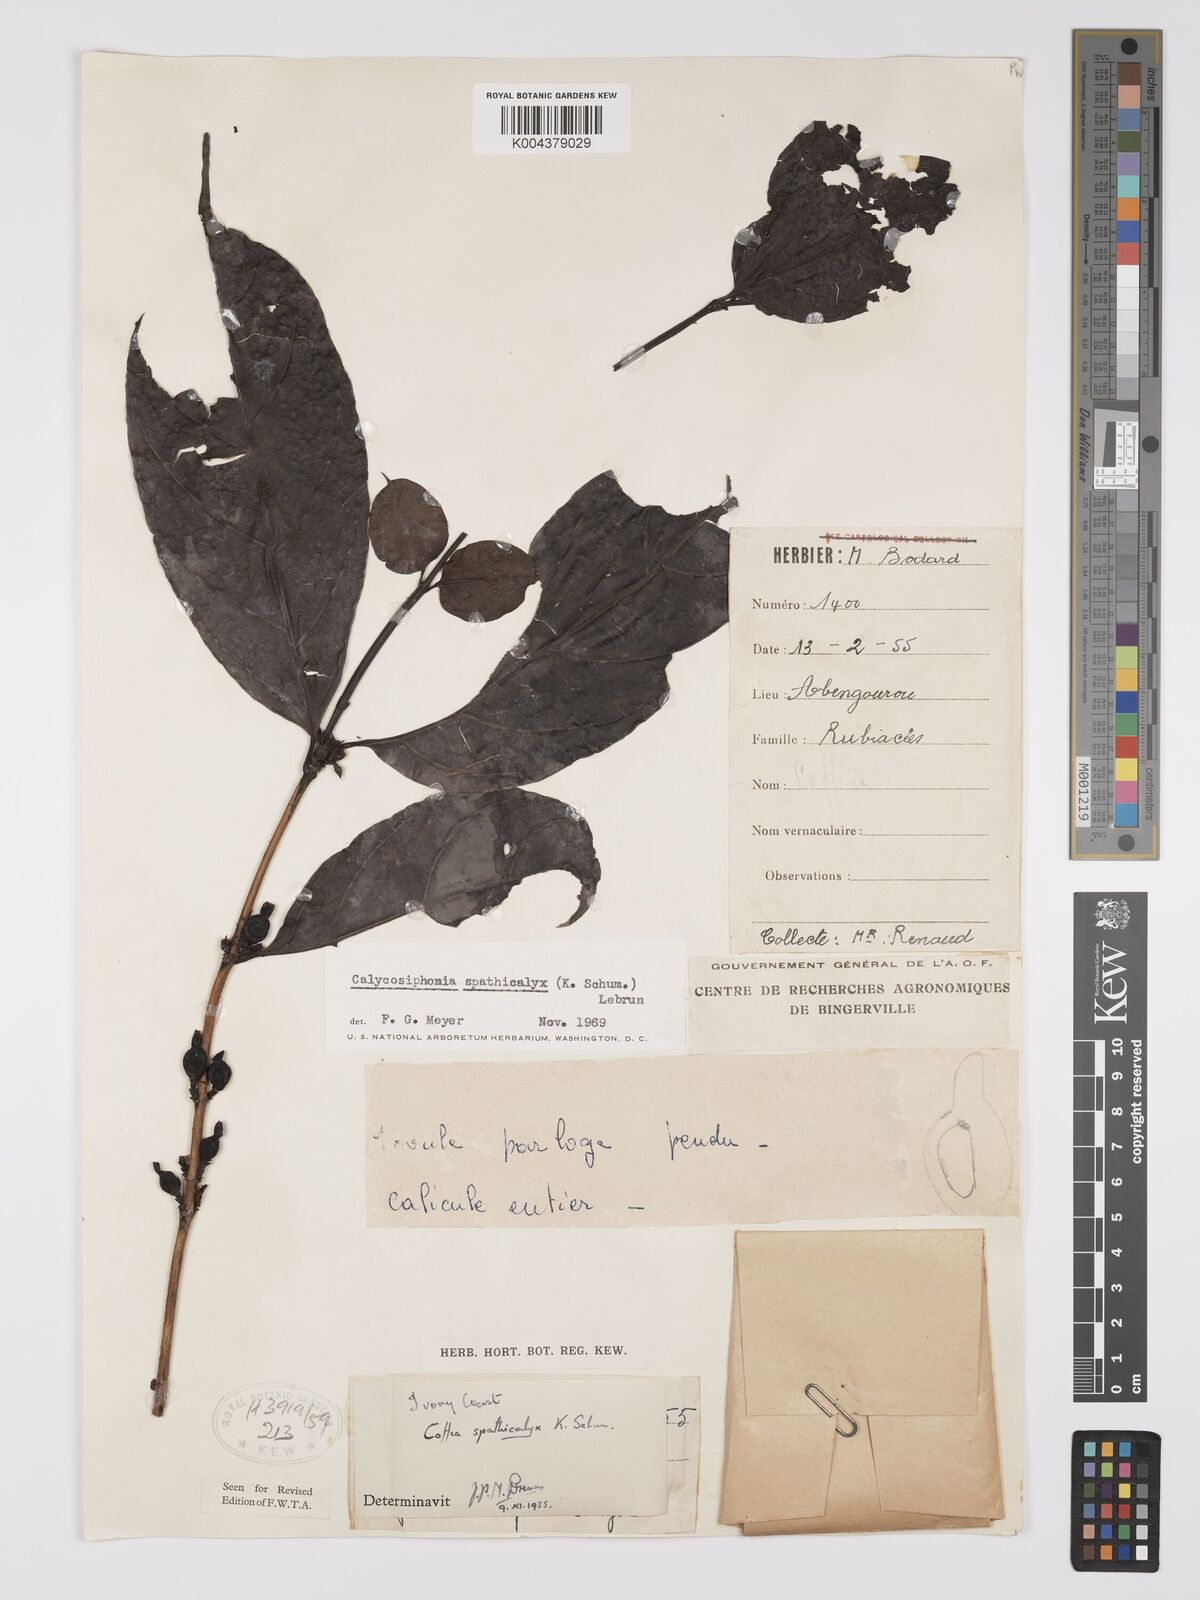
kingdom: Plantae
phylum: Tracheophyta
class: Magnoliopsida
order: Gentianales
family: Rubiaceae
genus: Calycosiphonia
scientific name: Calycosiphonia spathicalyx
